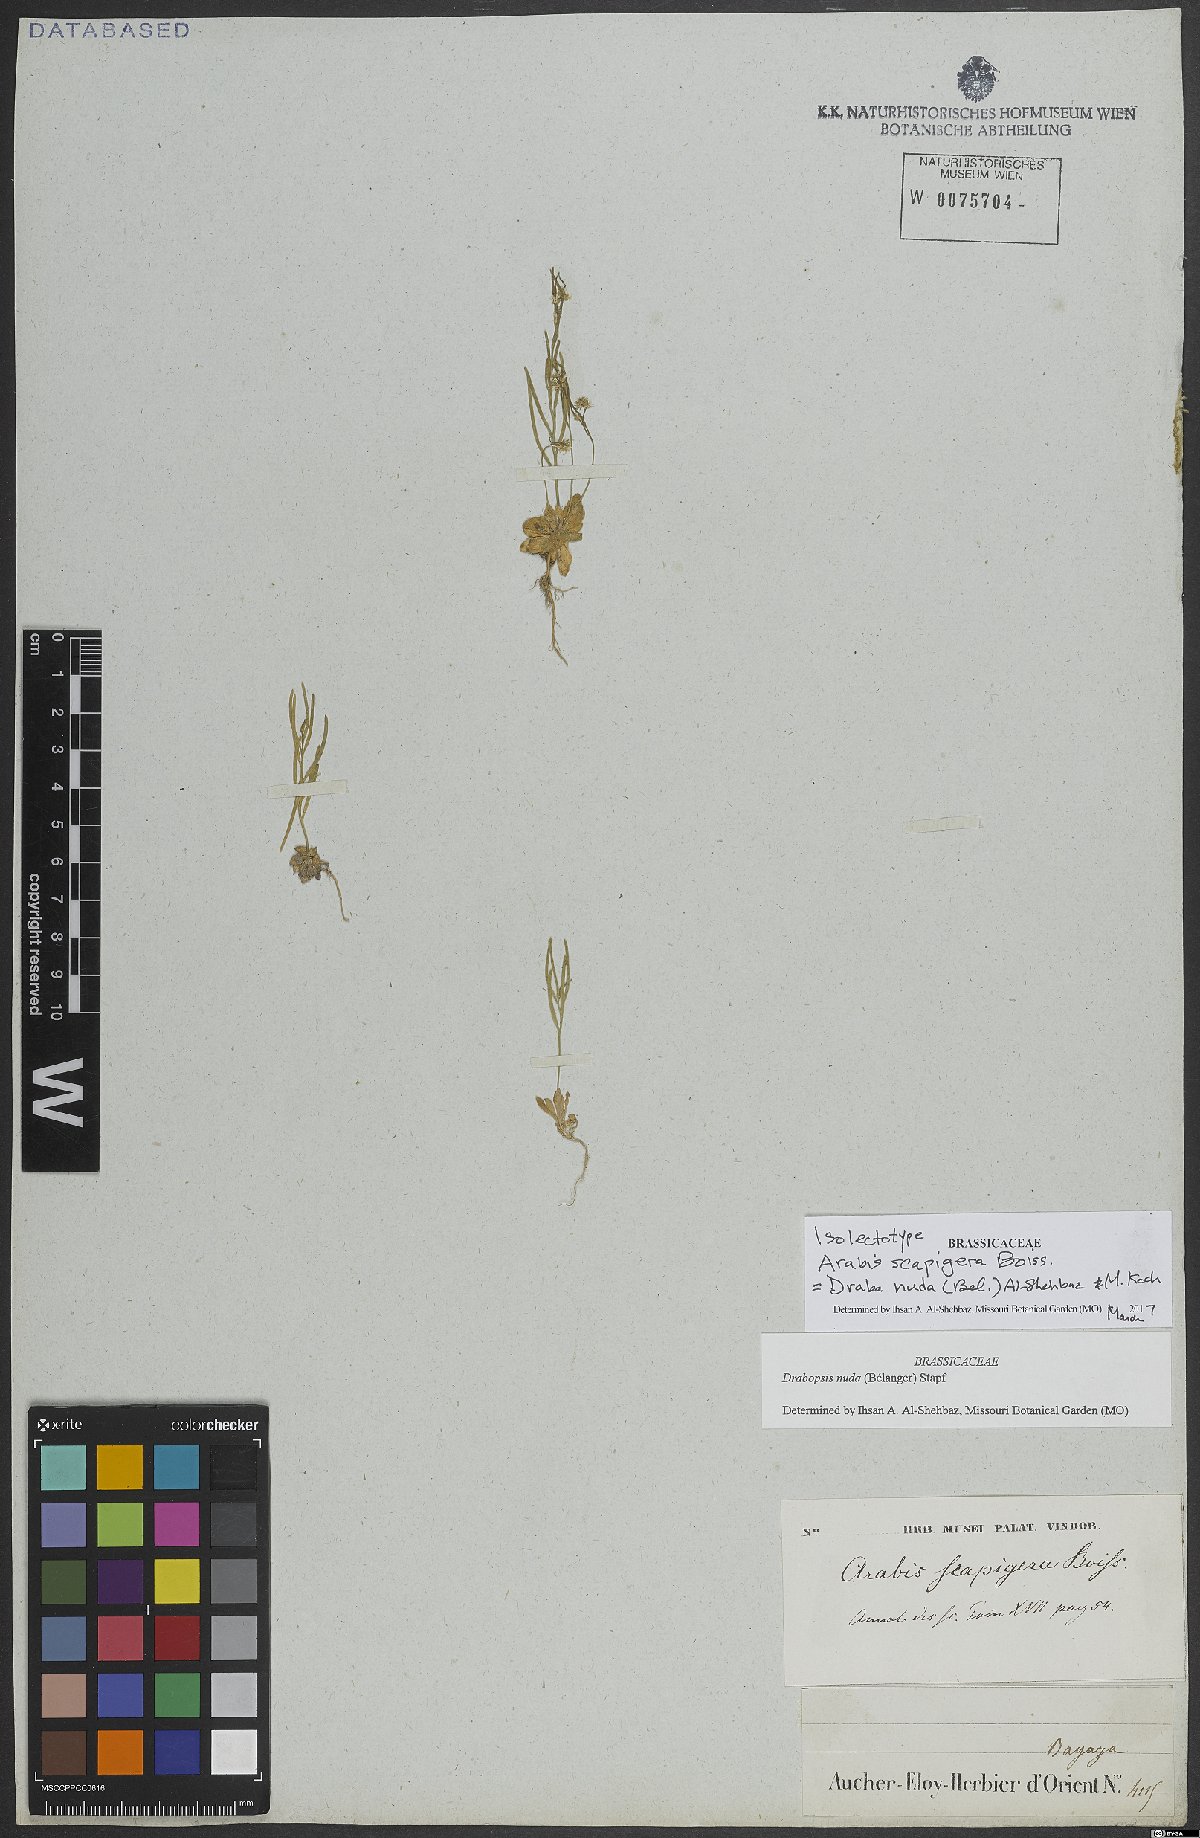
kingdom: Plantae
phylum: Tracheophyta
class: Magnoliopsida
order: Brassicales
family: Brassicaceae
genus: Draba
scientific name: Draba nuda
